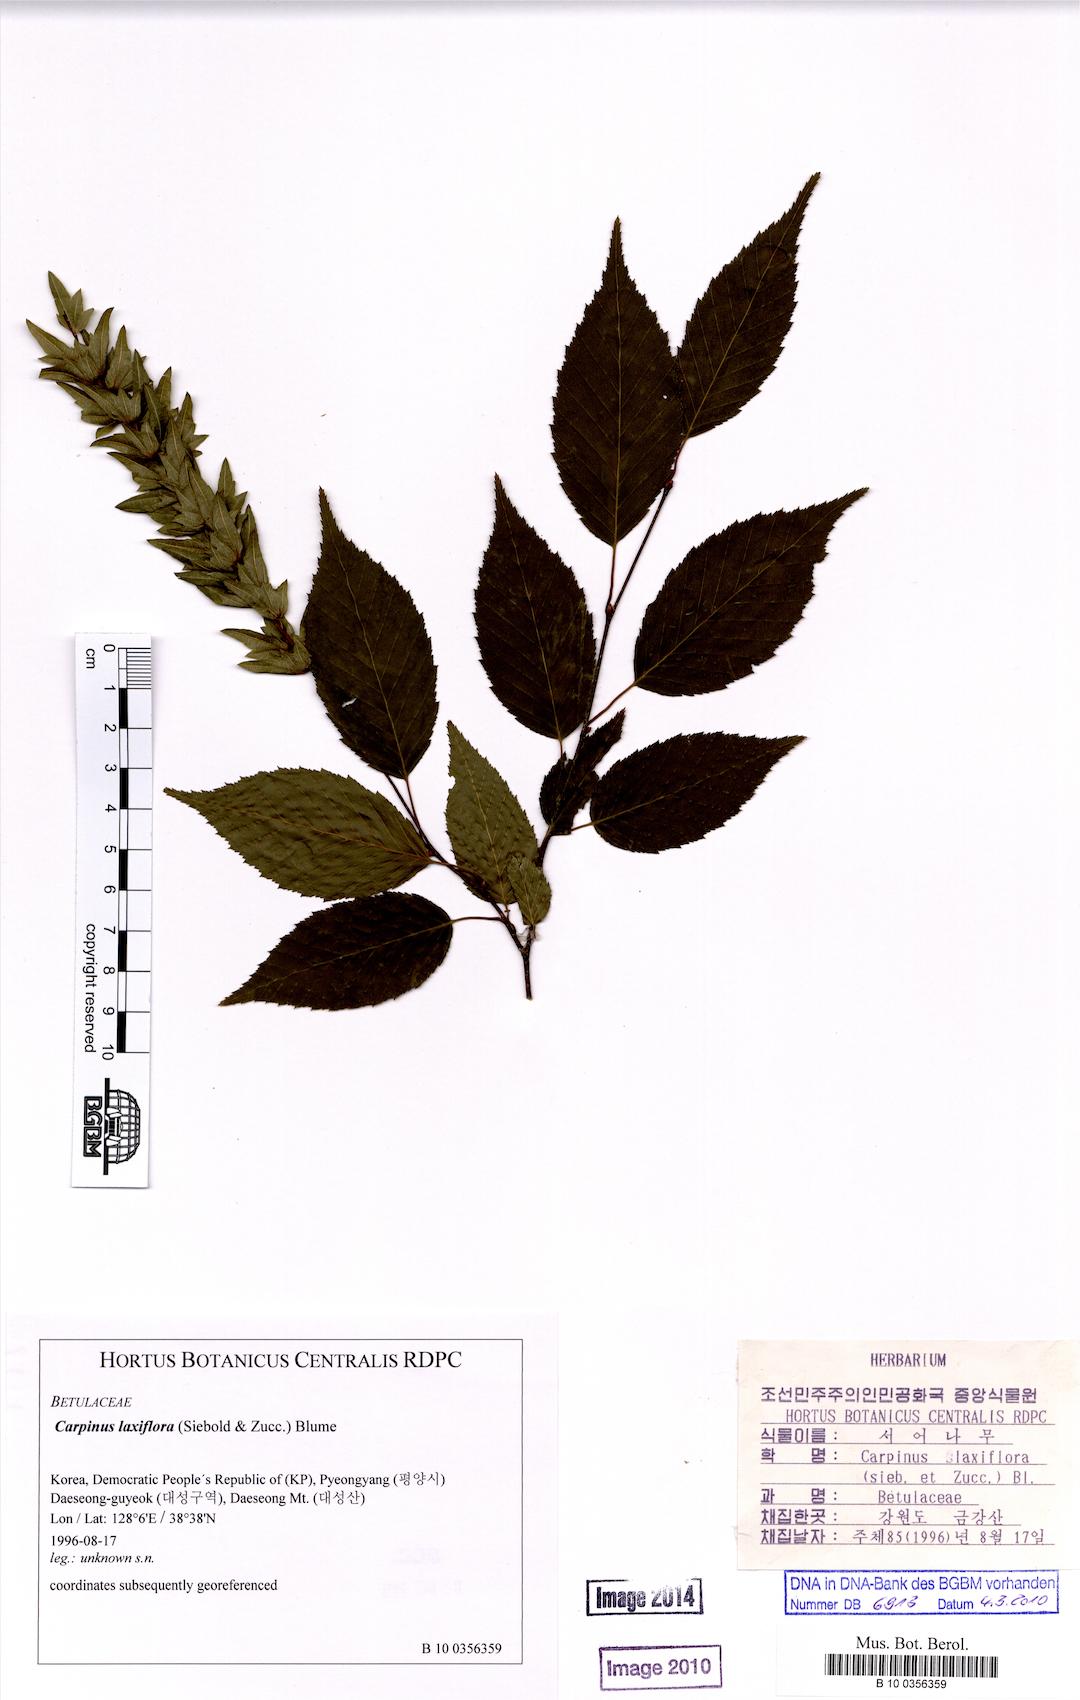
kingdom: Plantae
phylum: Tracheophyta
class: Magnoliopsida
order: Fagales
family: Betulaceae
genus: Carpinus
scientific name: Carpinus laxiflora
